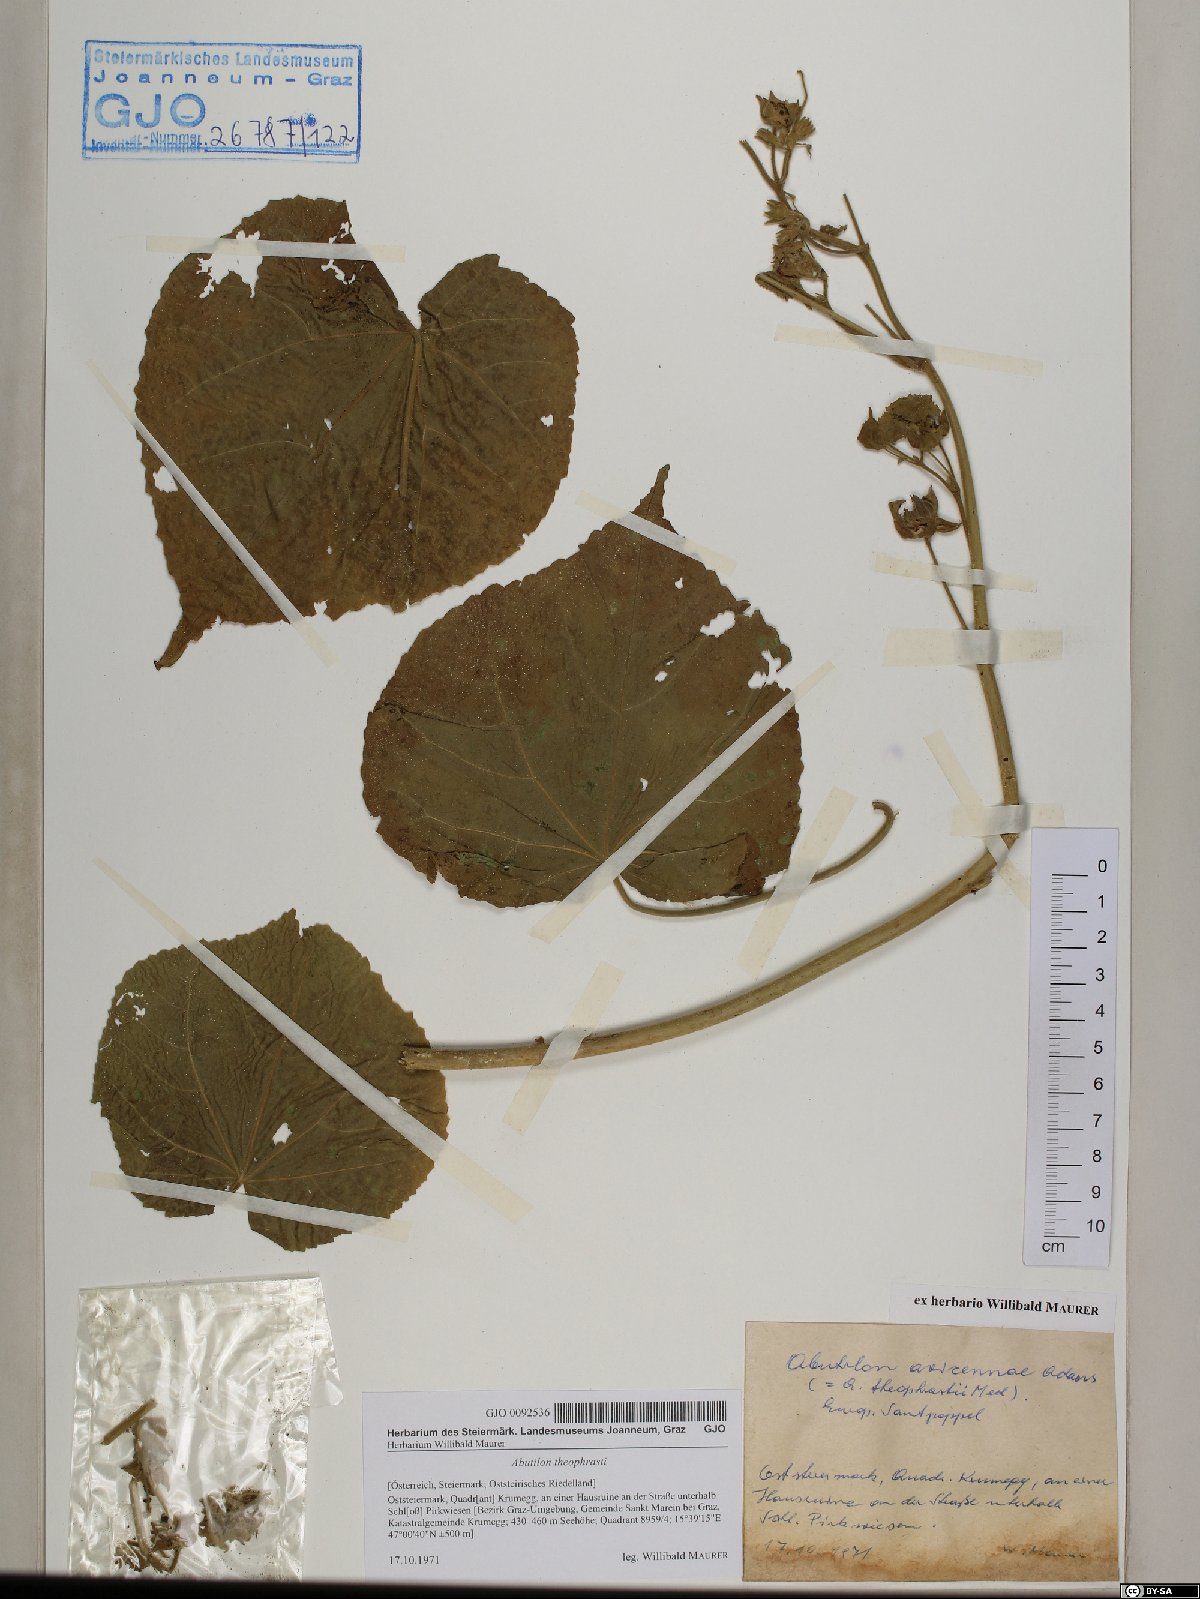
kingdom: Plantae
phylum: Tracheophyta
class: Magnoliopsida
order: Malvales
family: Malvaceae
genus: Abutilon
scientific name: Abutilon theophrasti
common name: Velvetleaf
